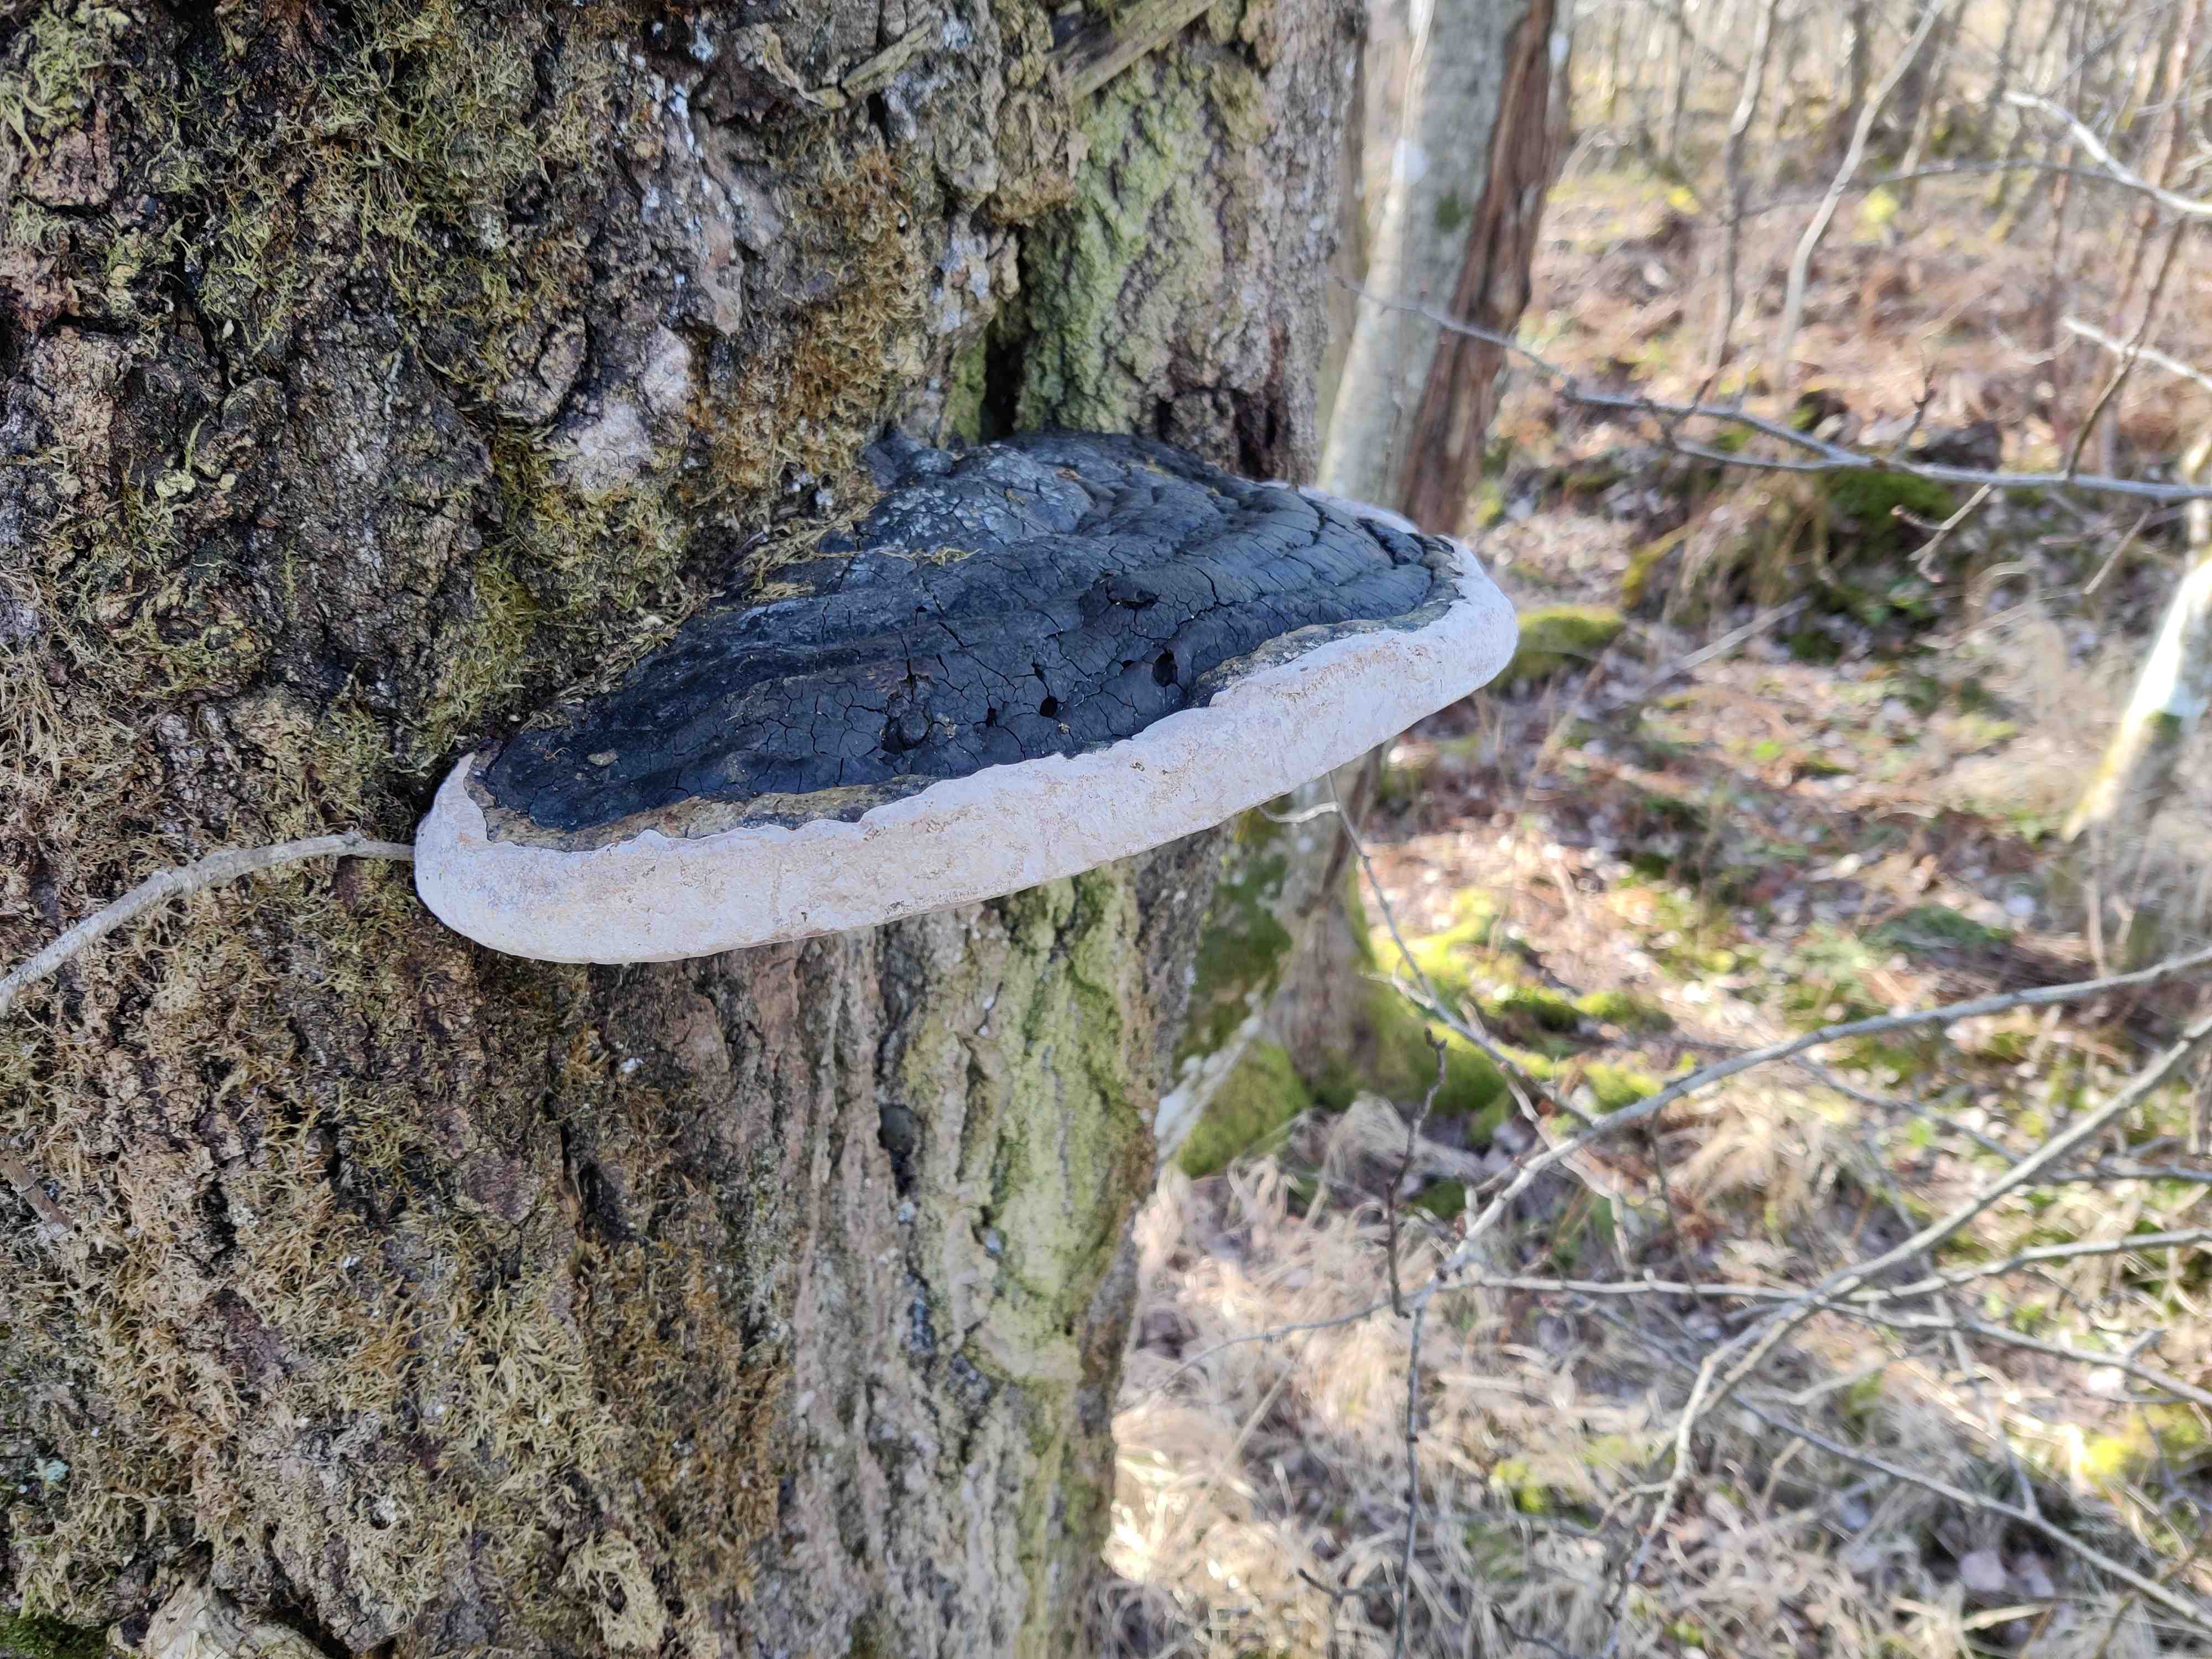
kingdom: Fungi
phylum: Basidiomycota
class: Agaricomycetes
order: Hymenochaetales
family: Hymenochaetaceae
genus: Phellinus
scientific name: Phellinus populicola
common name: poppel-ildporesvamp
